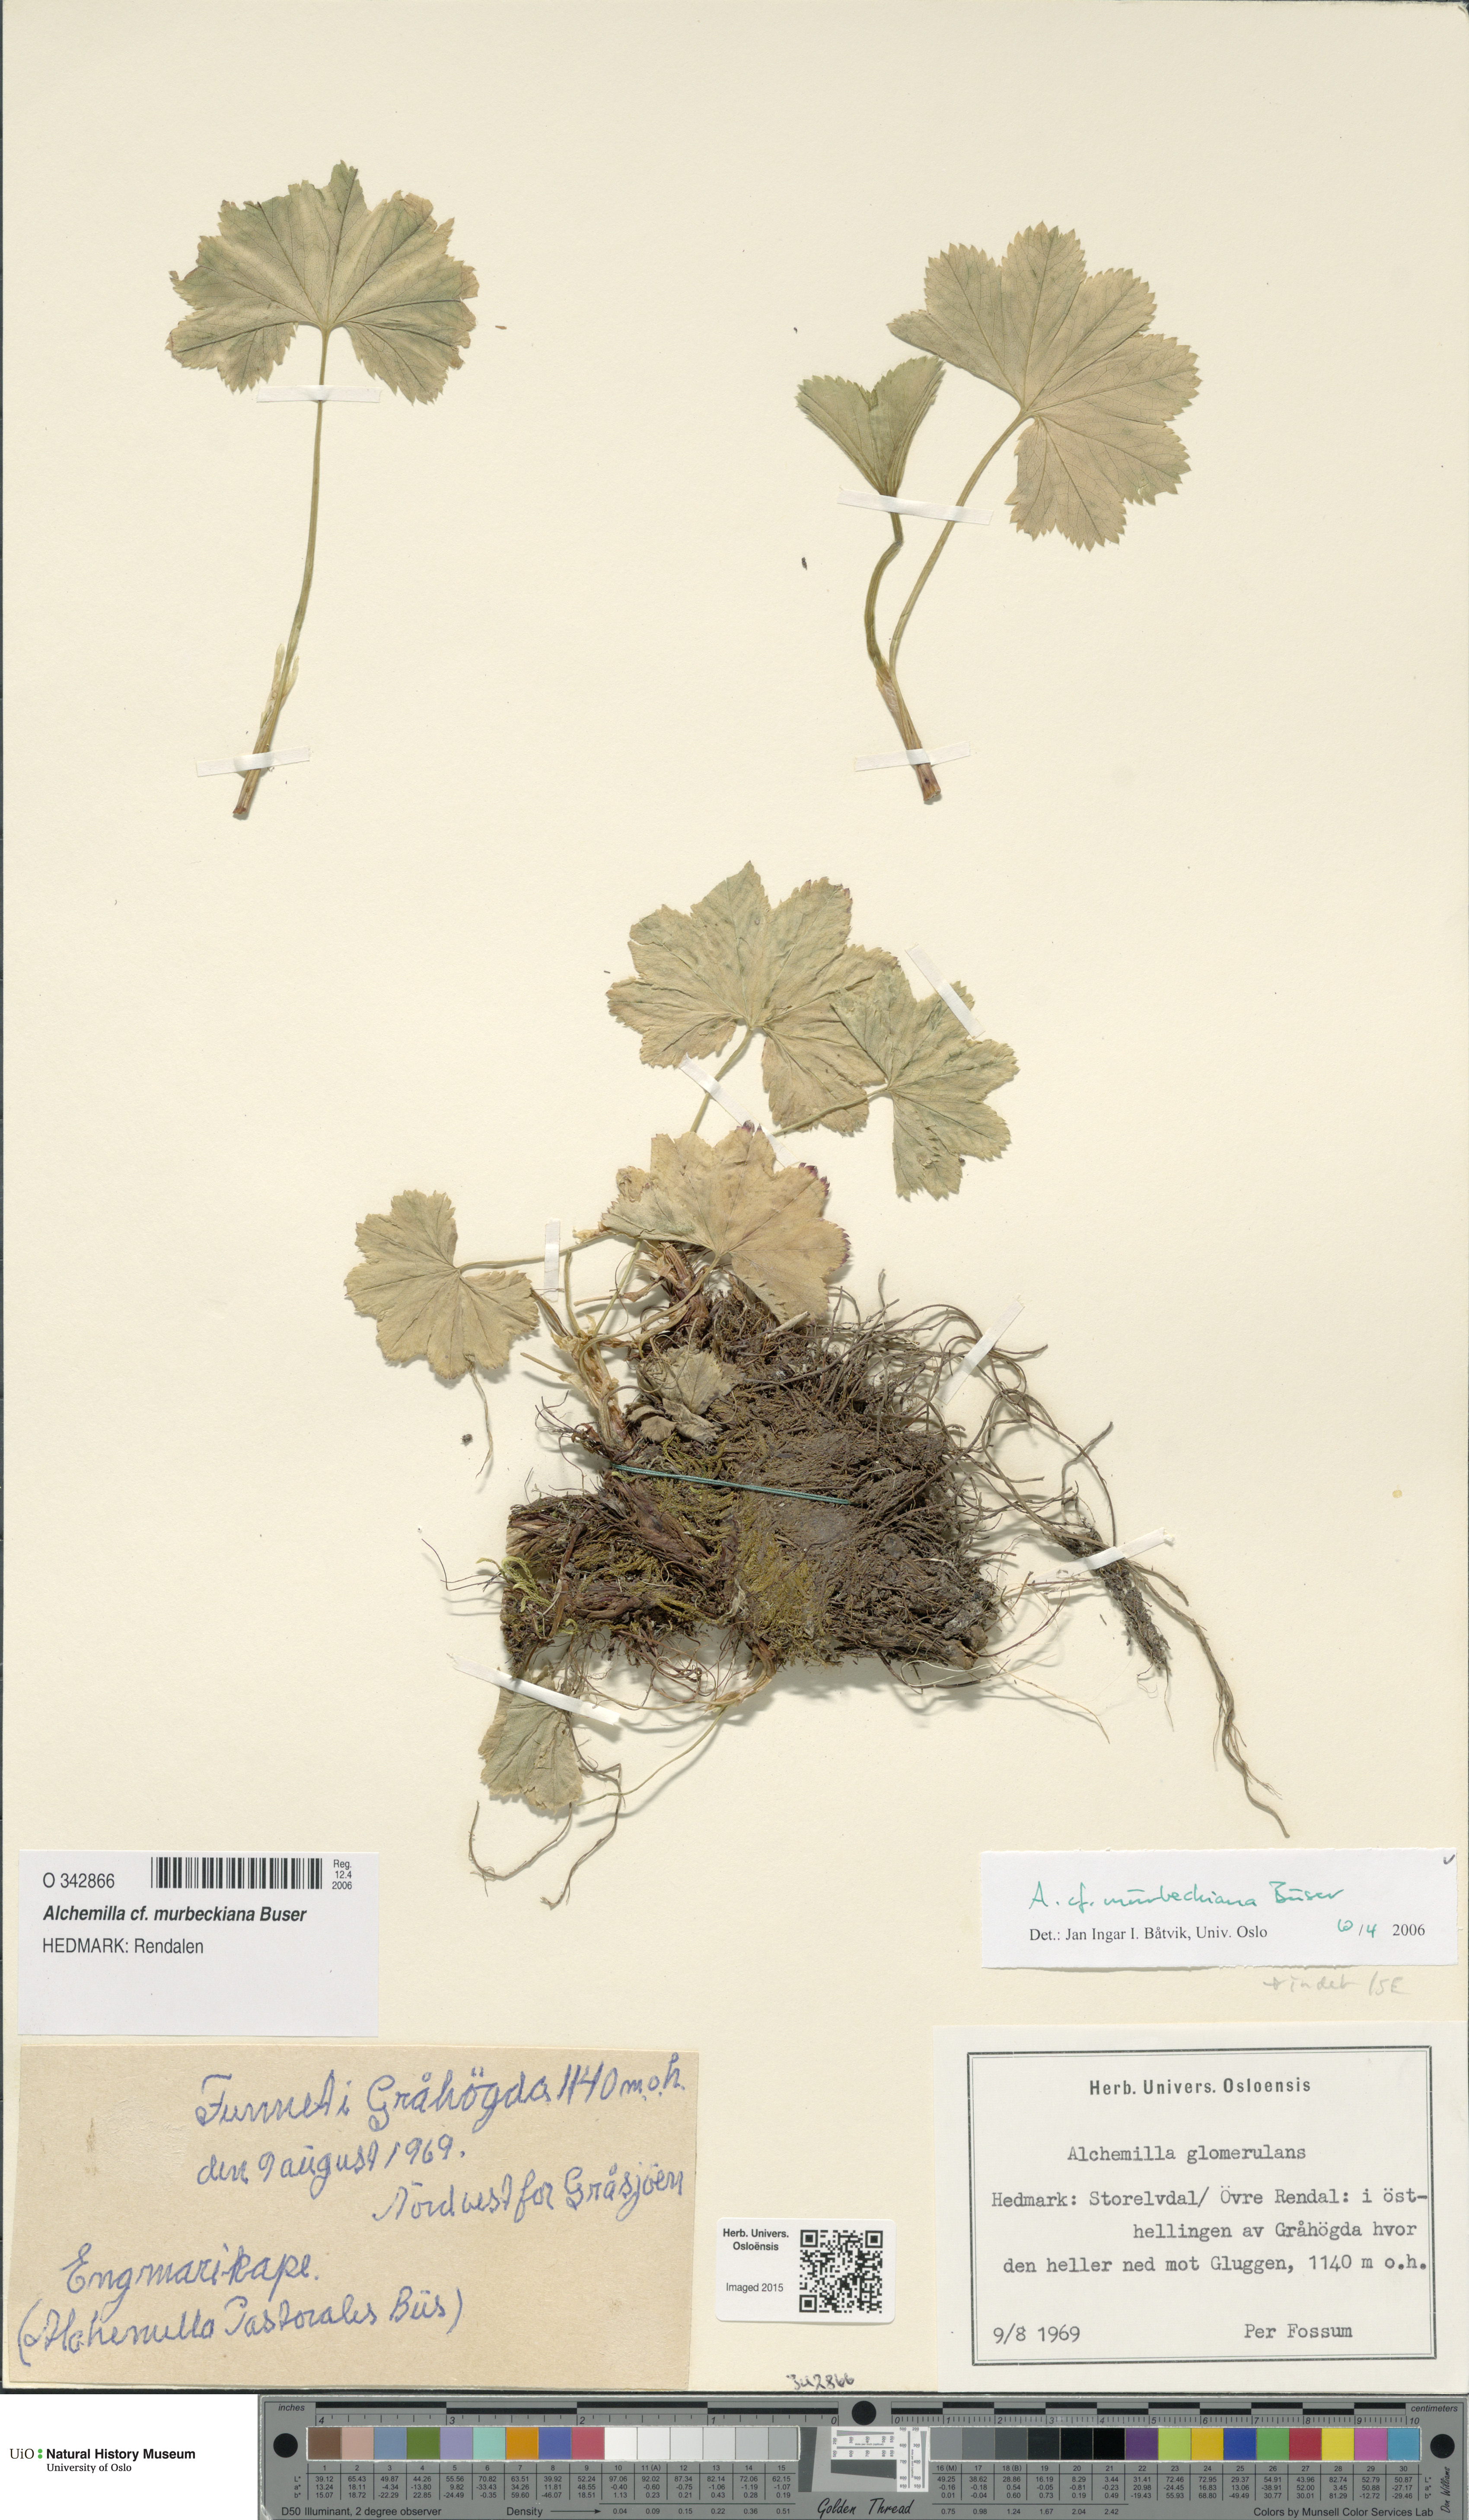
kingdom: Plantae
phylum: Tracheophyta
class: Magnoliopsida
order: Rosales
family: Rosaceae
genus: Alchemilla
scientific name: Alchemilla murbeckiana
